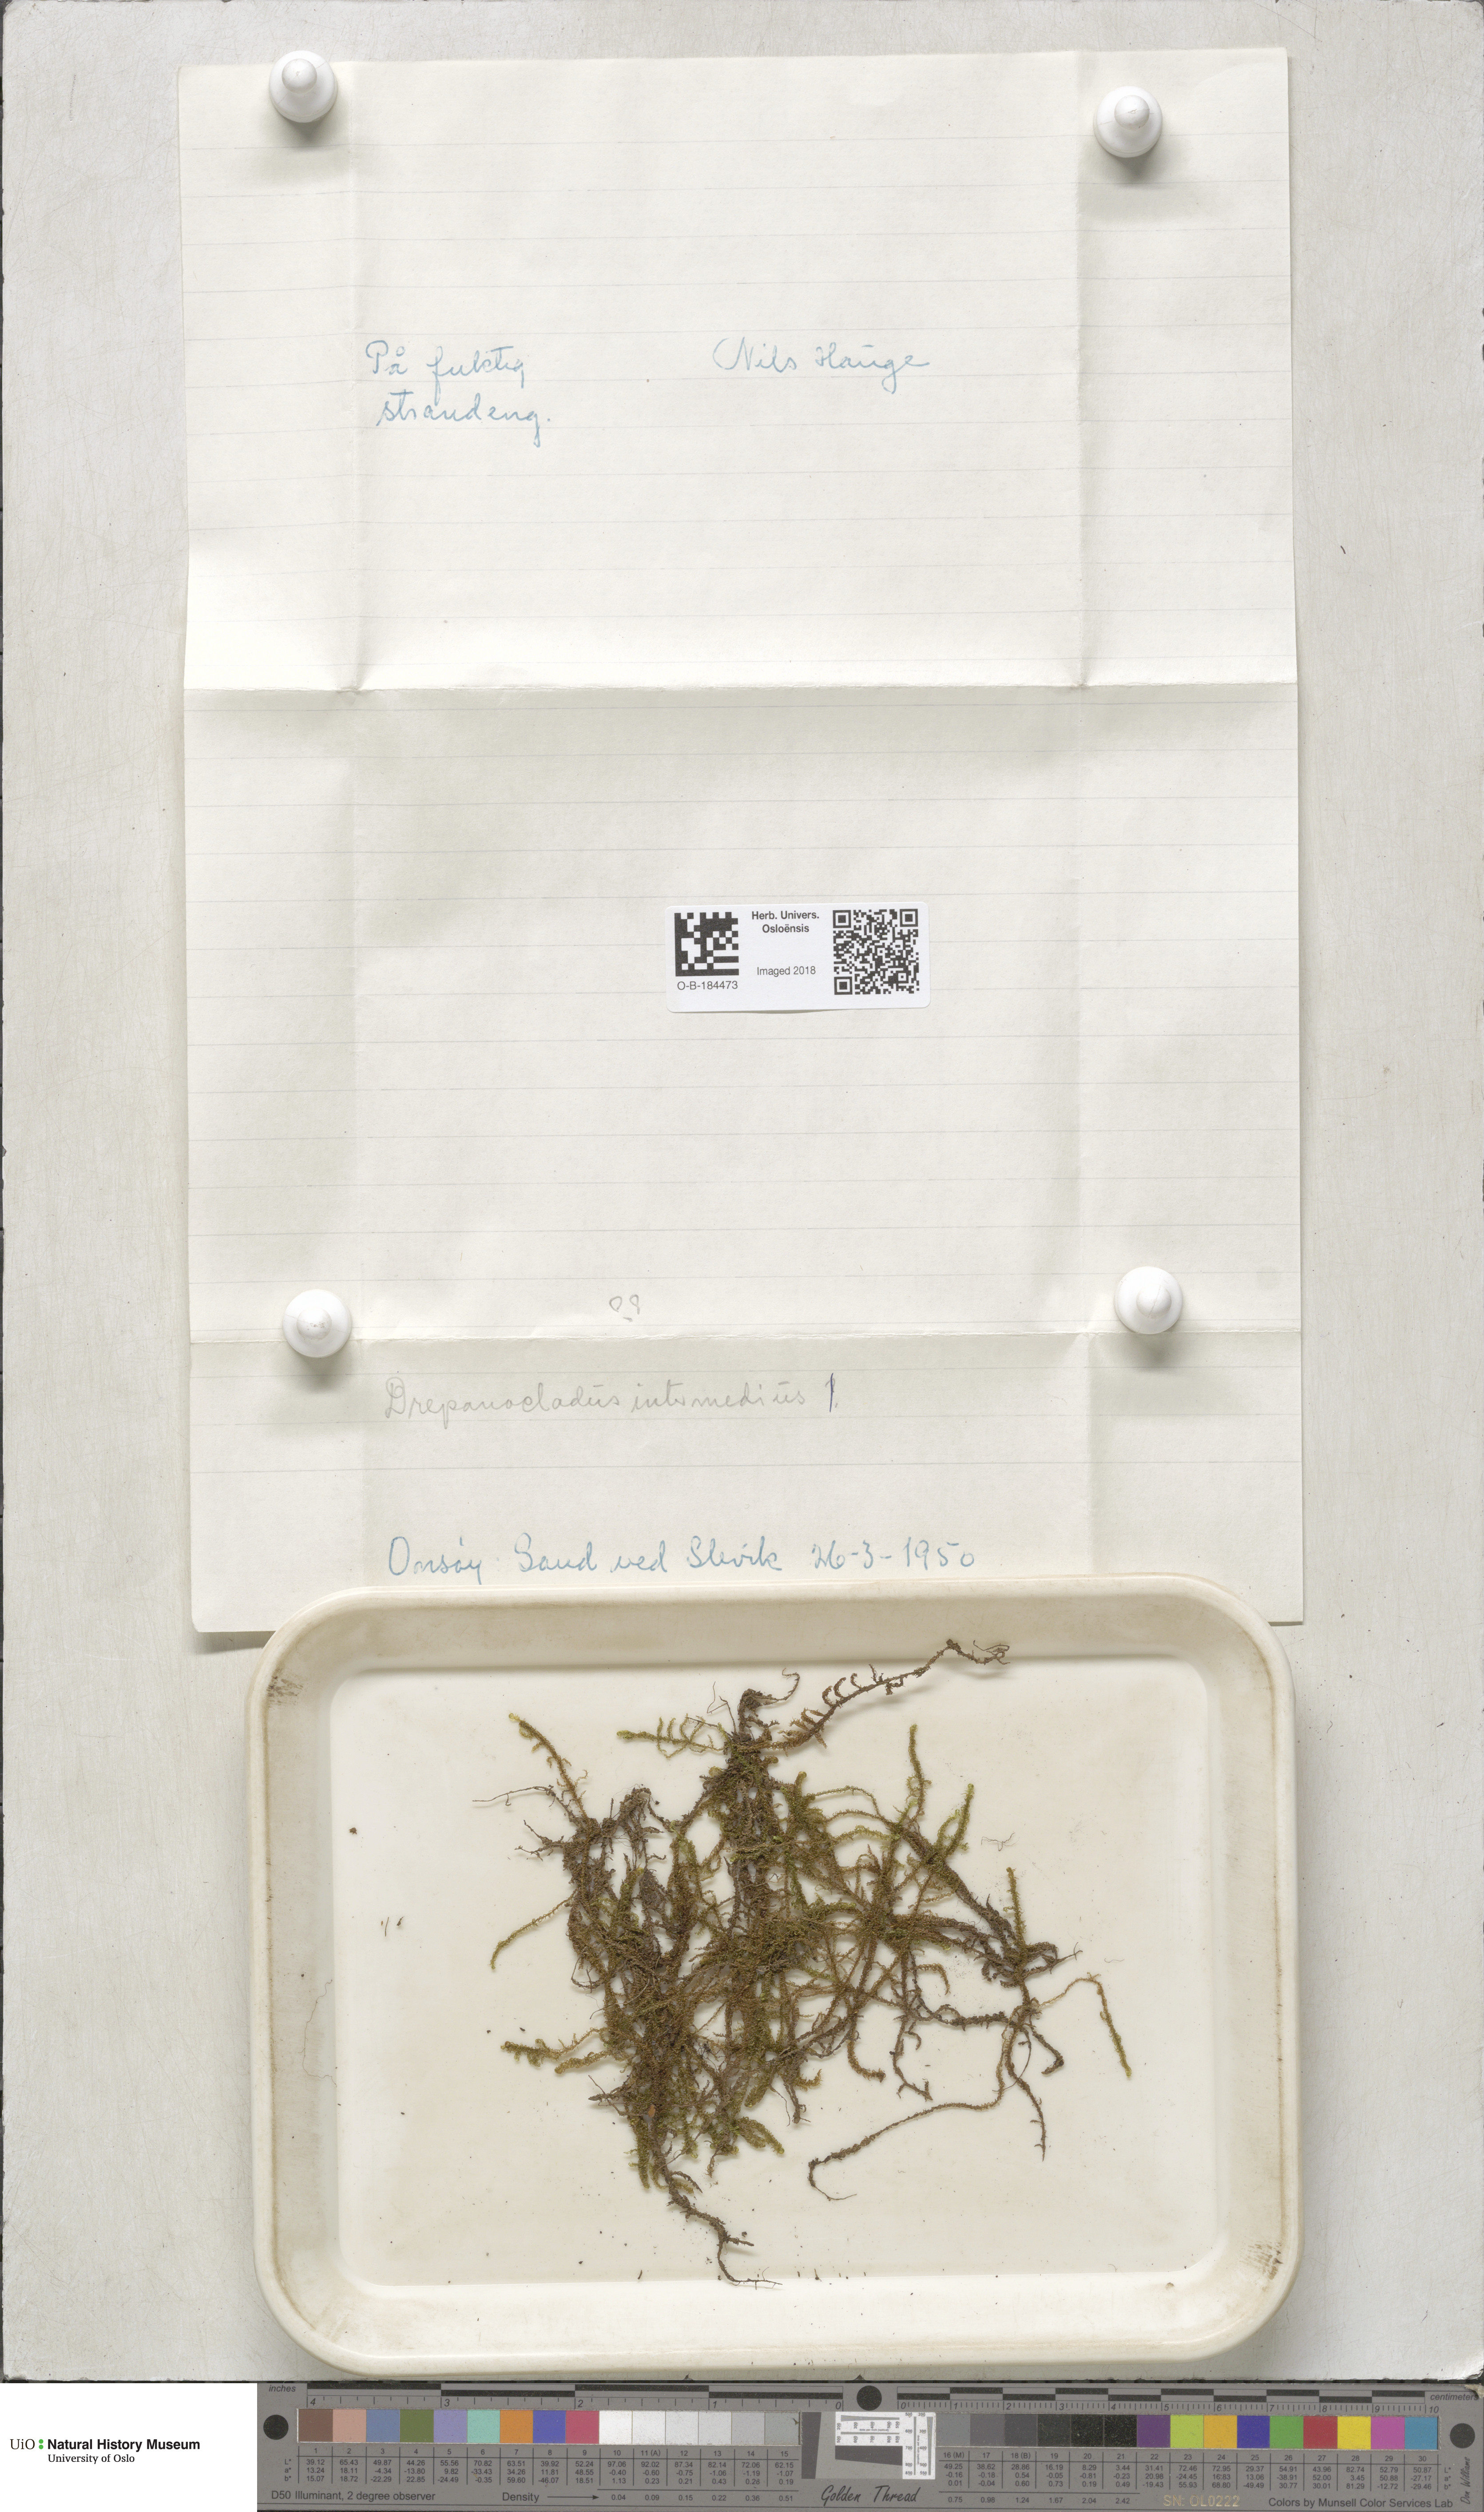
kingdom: Plantae
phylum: Bryophyta
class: Bryopsida
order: Hypnales
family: Scorpidiaceae
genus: Scorpidium
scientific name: Scorpidium cossonii
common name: Cosson's hook moss
